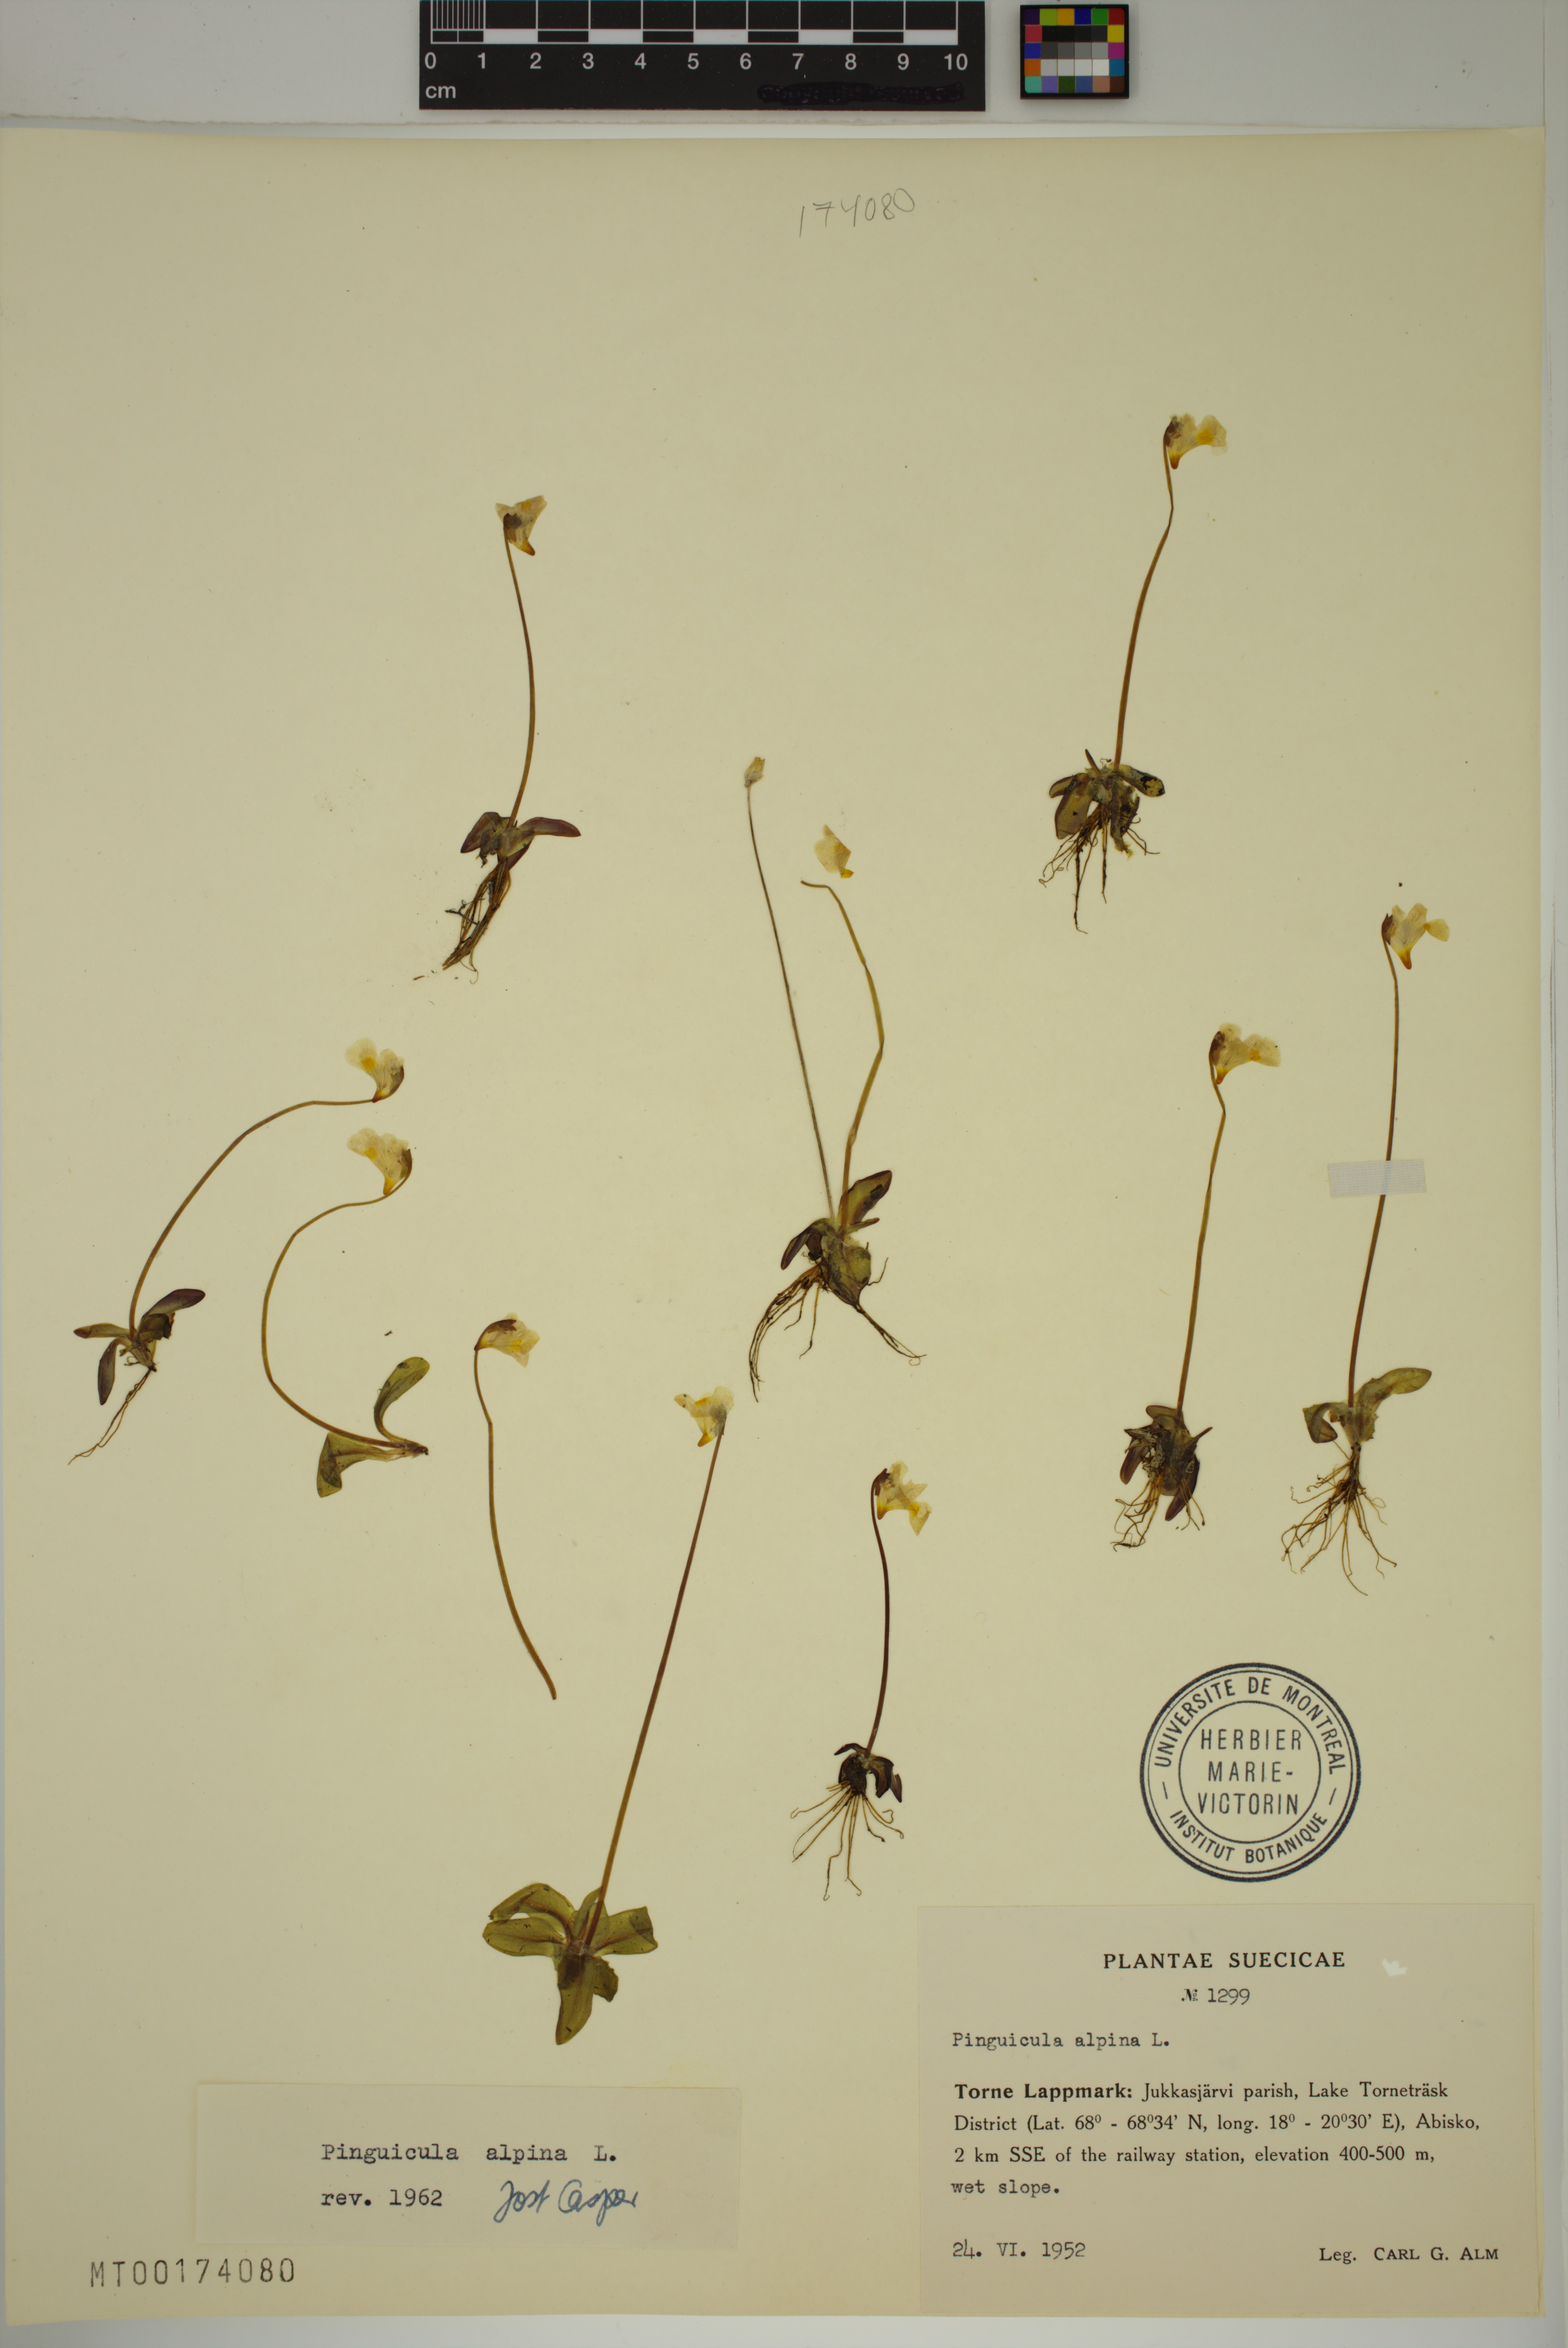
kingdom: Plantae
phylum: Tracheophyta
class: Magnoliopsida
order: Lamiales
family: Lentibulariaceae
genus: Pinguicula
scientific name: Pinguicula alpina
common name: Alpine butterwort
